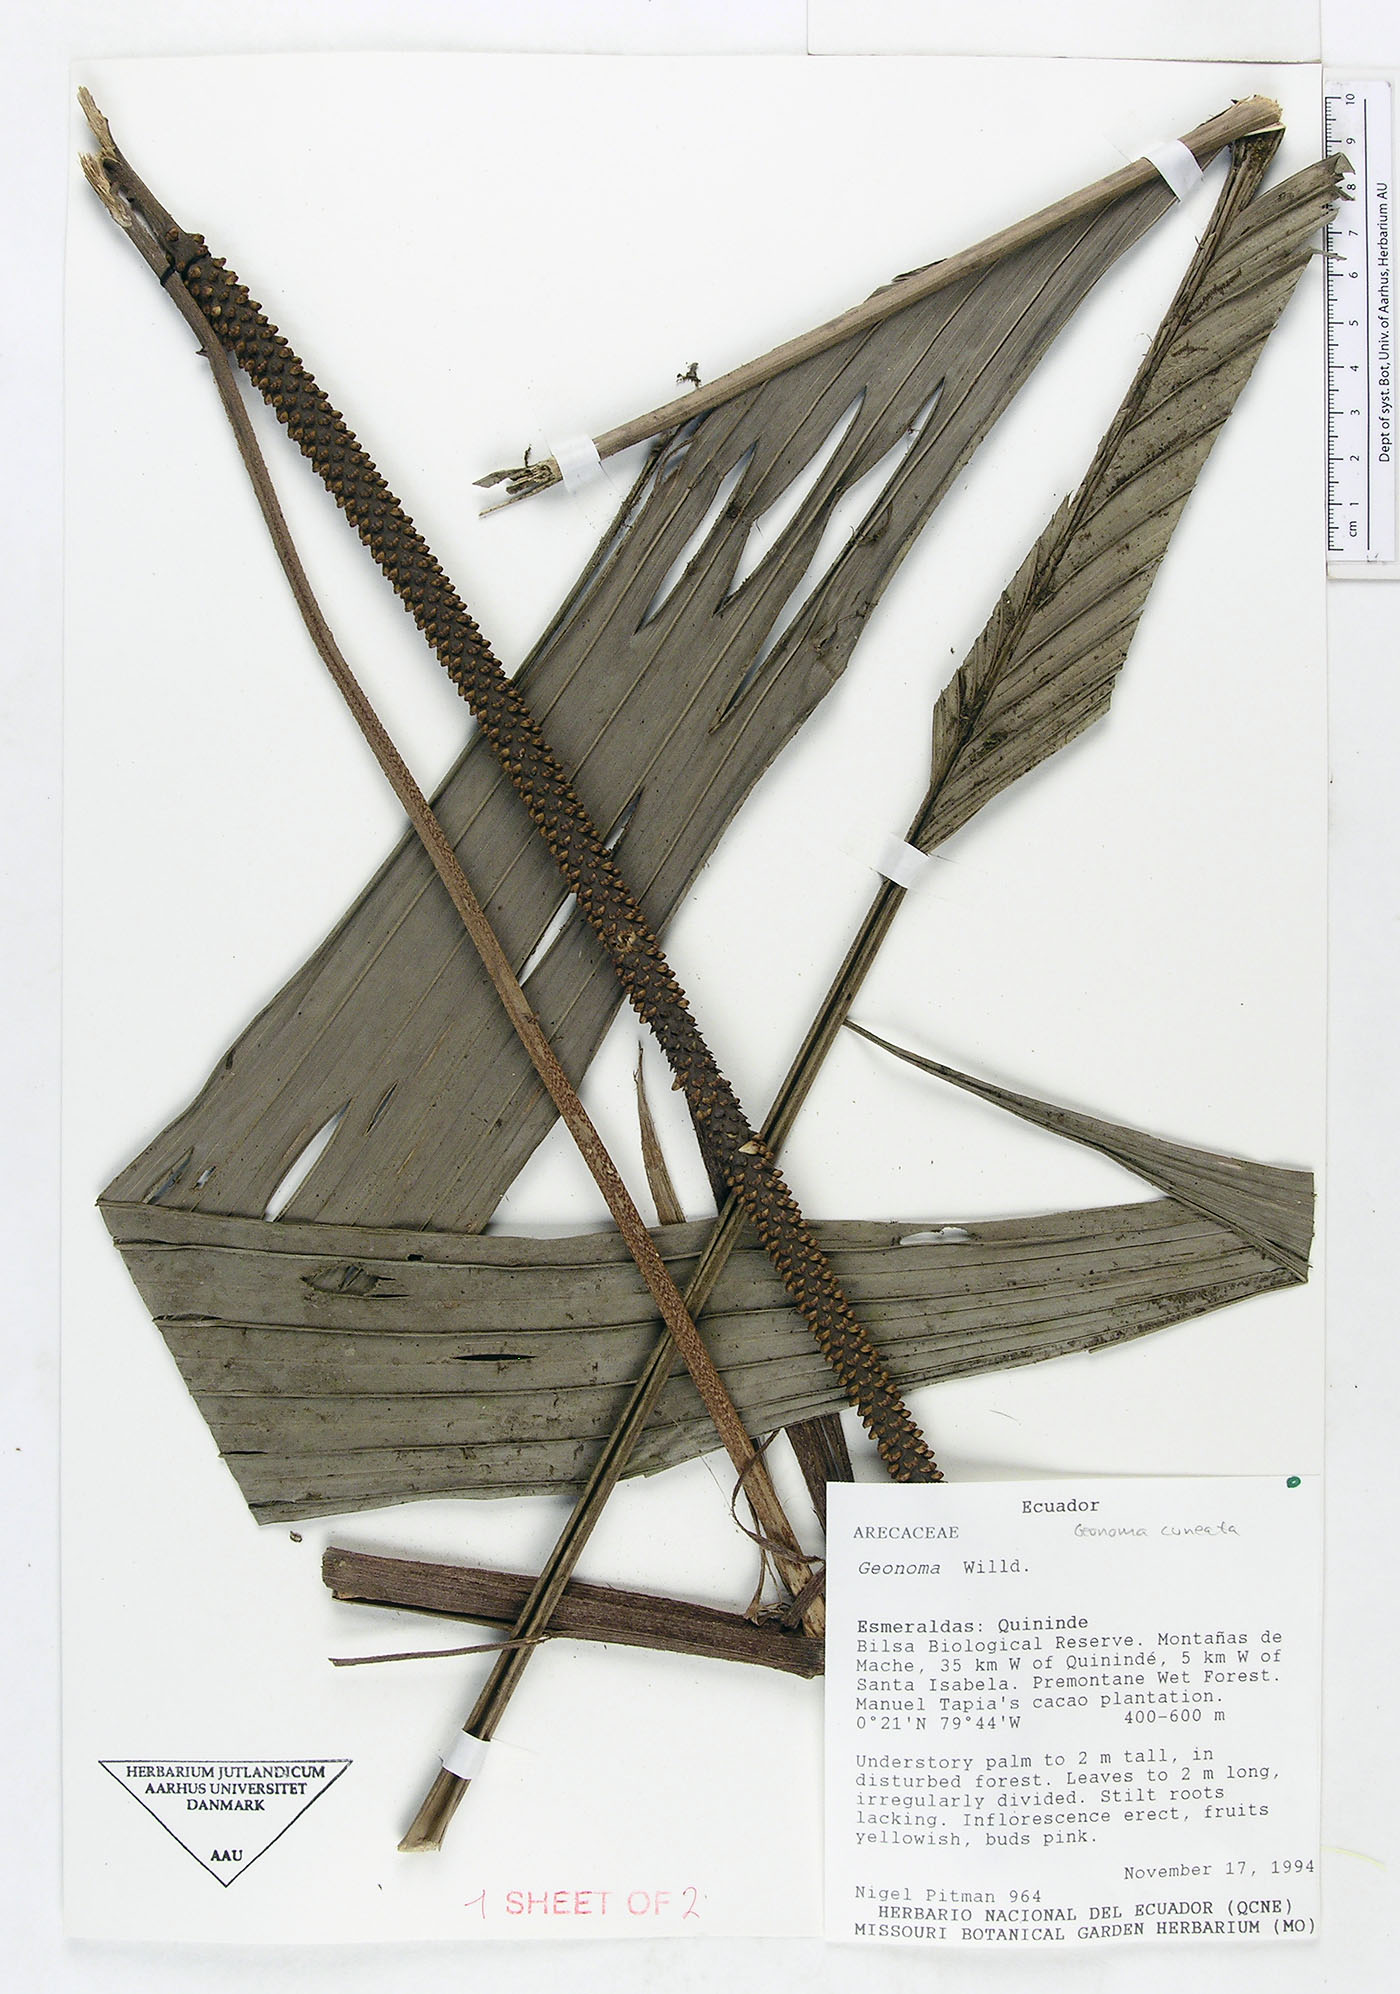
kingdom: Plantae
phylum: Tracheophyta
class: Liliopsida
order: Arecales
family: Arecaceae
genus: Geonoma
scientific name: Geonoma cuneata
